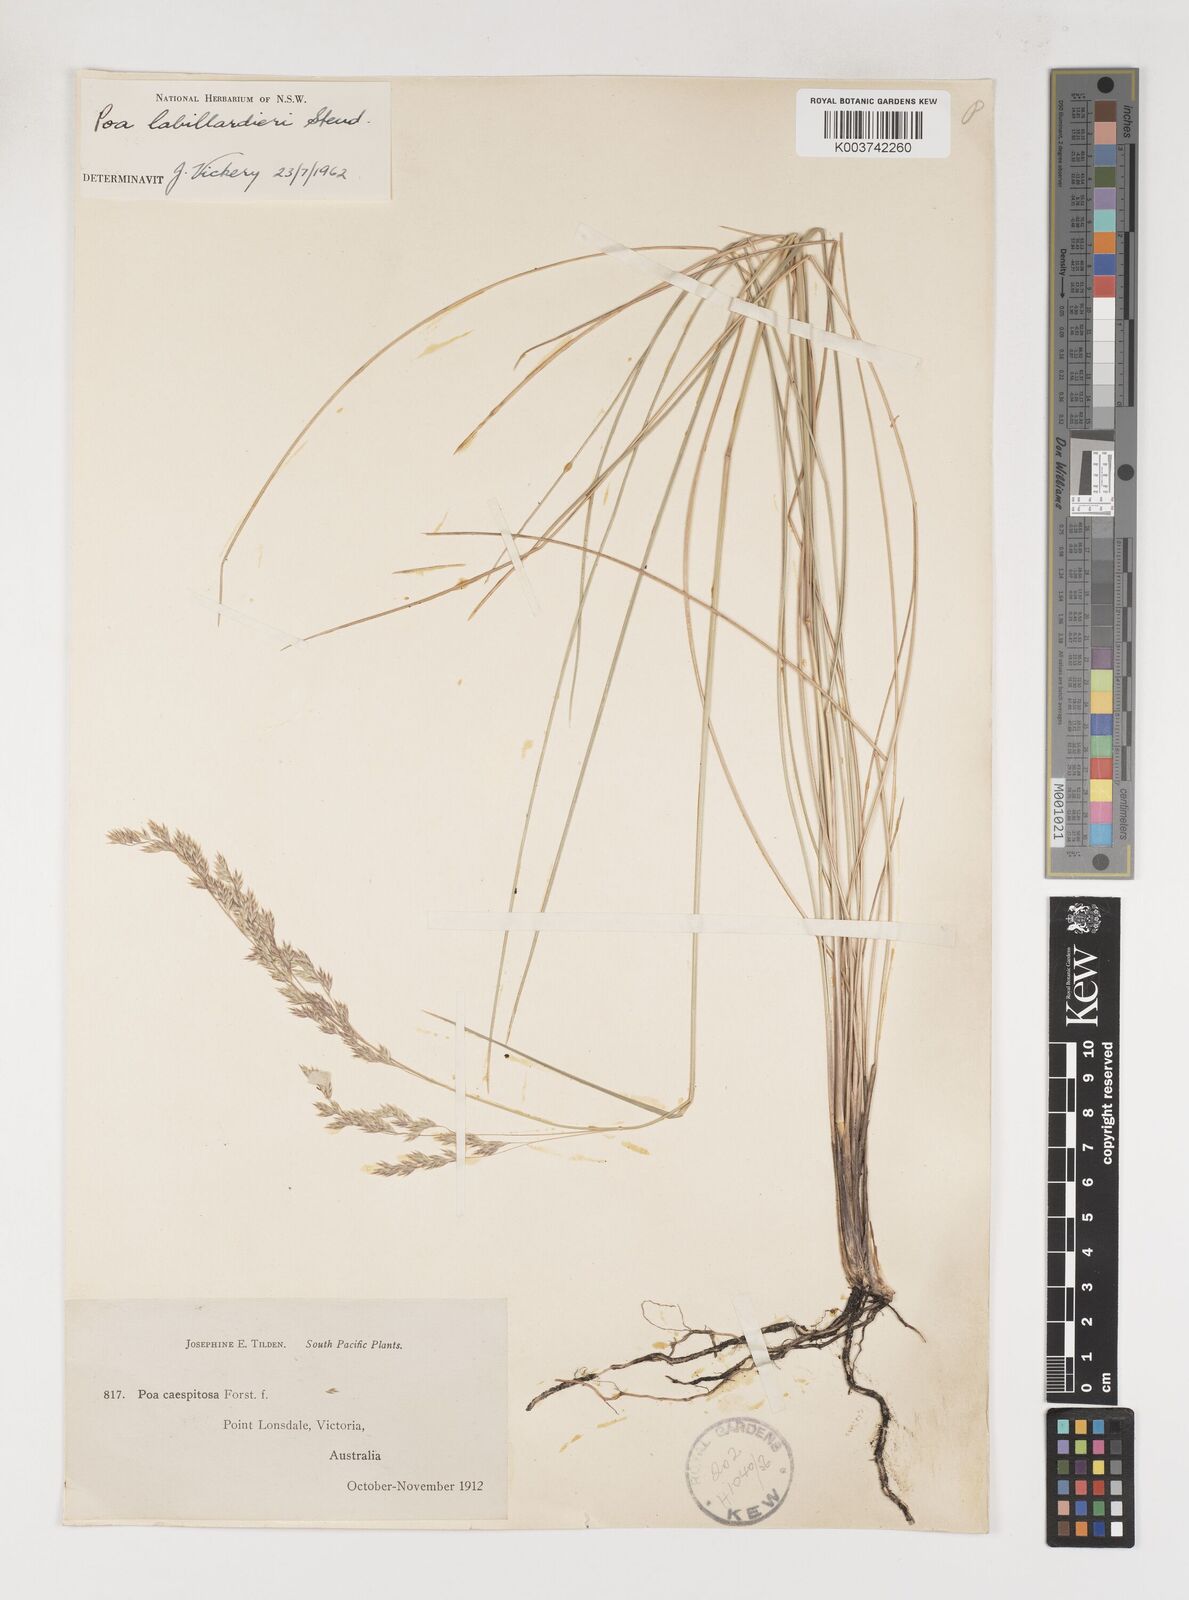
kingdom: Plantae
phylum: Tracheophyta
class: Liliopsida
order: Poales
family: Poaceae
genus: Poa
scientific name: Poa labillardierei
